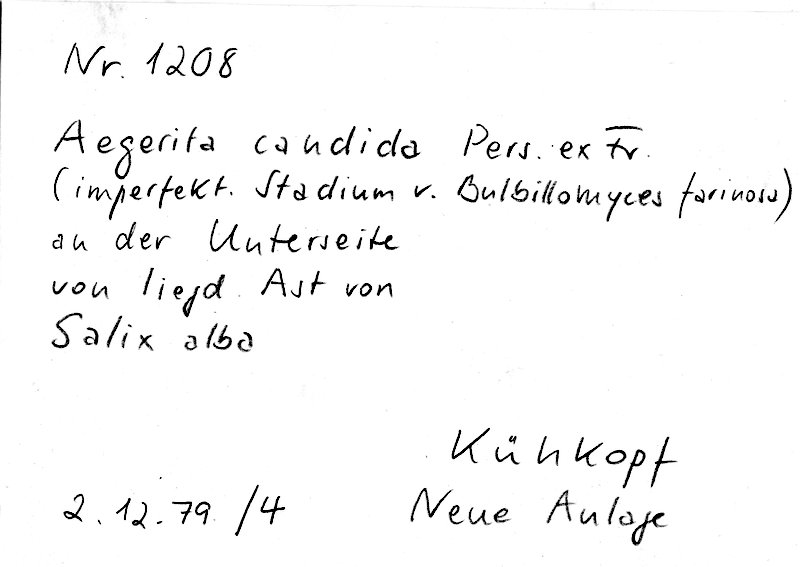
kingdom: Plantae
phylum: Tracheophyta
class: Magnoliopsida
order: Malpighiales
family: Salicaceae
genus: Salix
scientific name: Salix alba
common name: White willow
